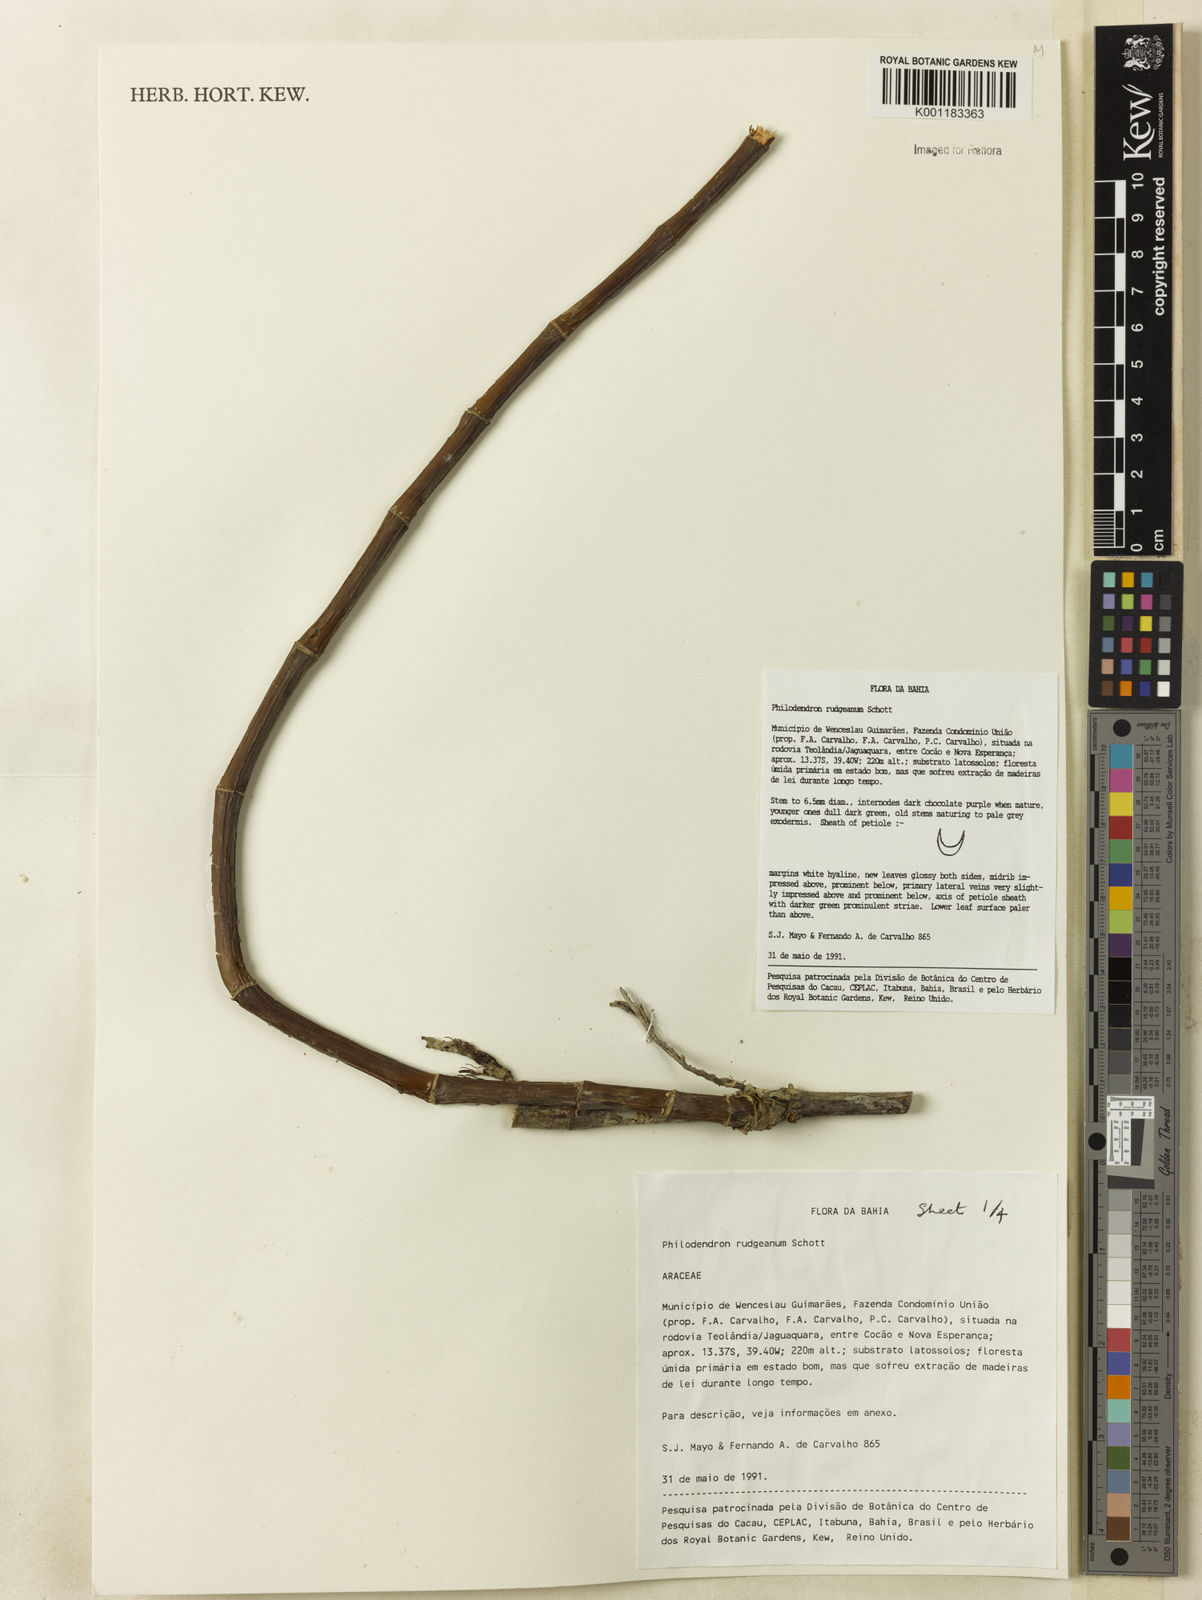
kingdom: Plantae
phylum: Tracheophyta
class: Liliopsida
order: Alismatales
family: Araceae
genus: Philodendron
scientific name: Philodendron rudgeanum
